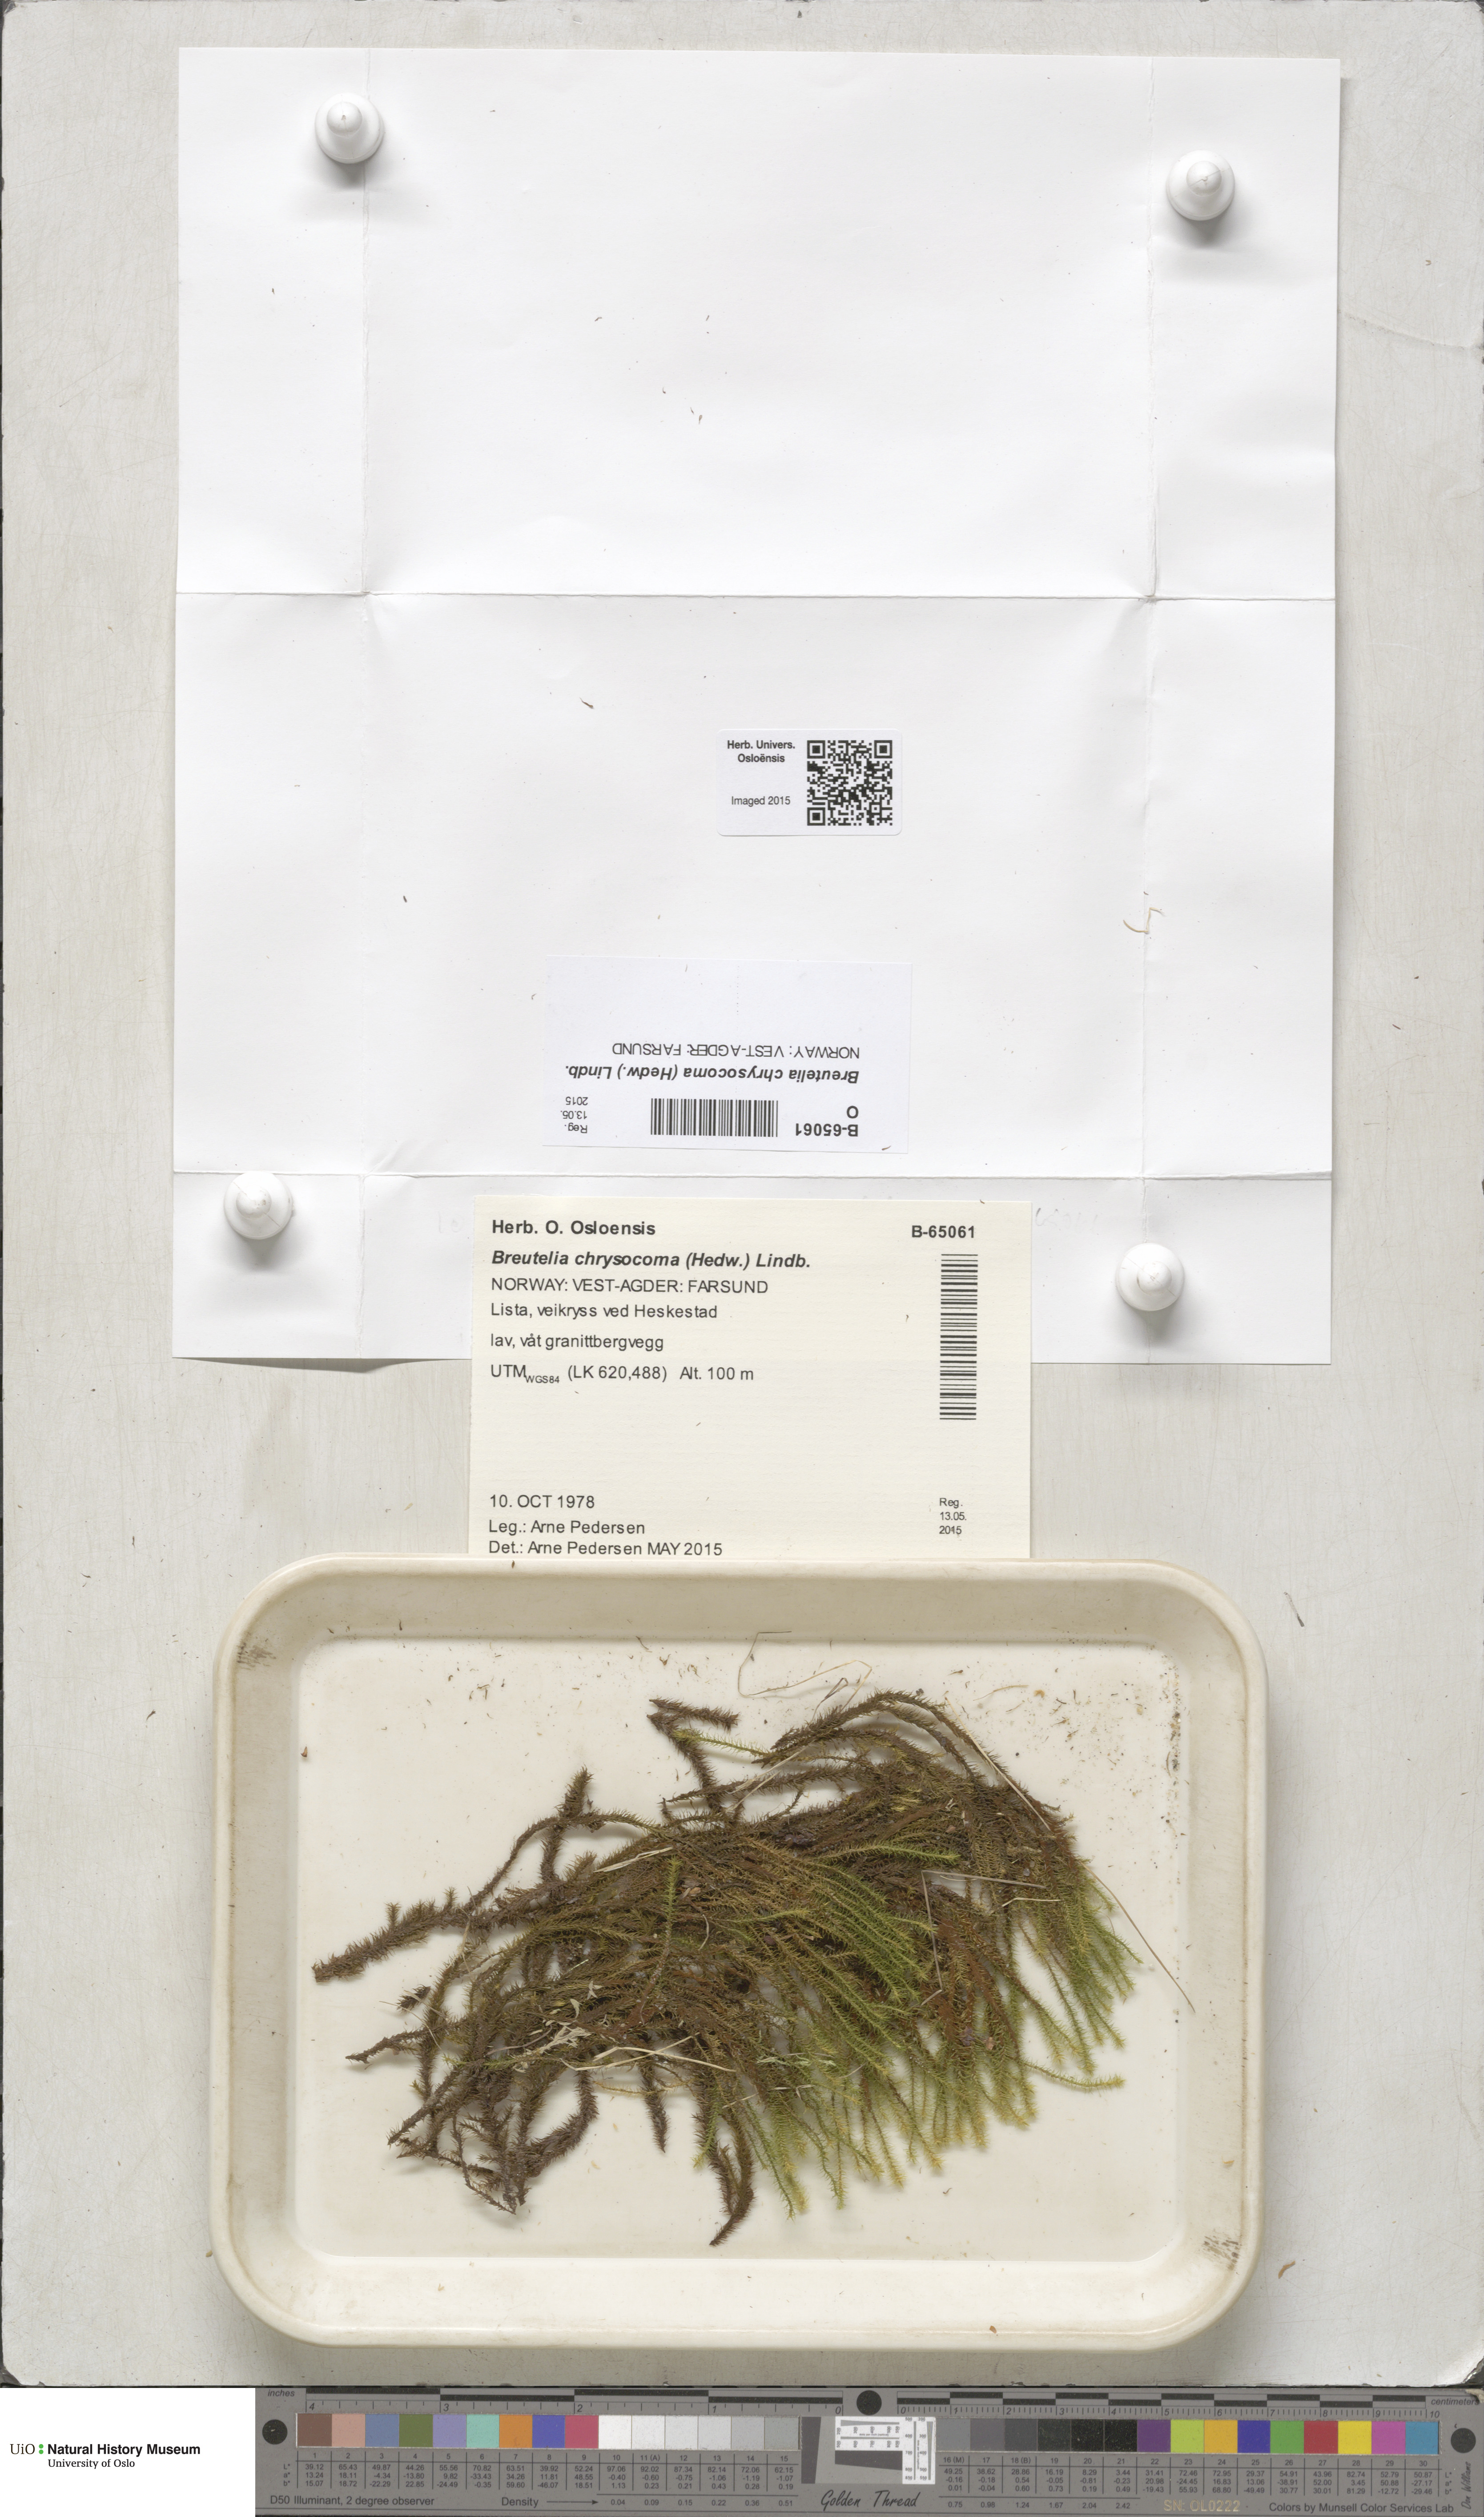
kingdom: Plantae
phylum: Bryophyta
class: Bryopsida
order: Bartramiales
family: Bartramiaceae
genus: Breutelia
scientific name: Breutelia chrysocoma
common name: Bottle-brush moss
